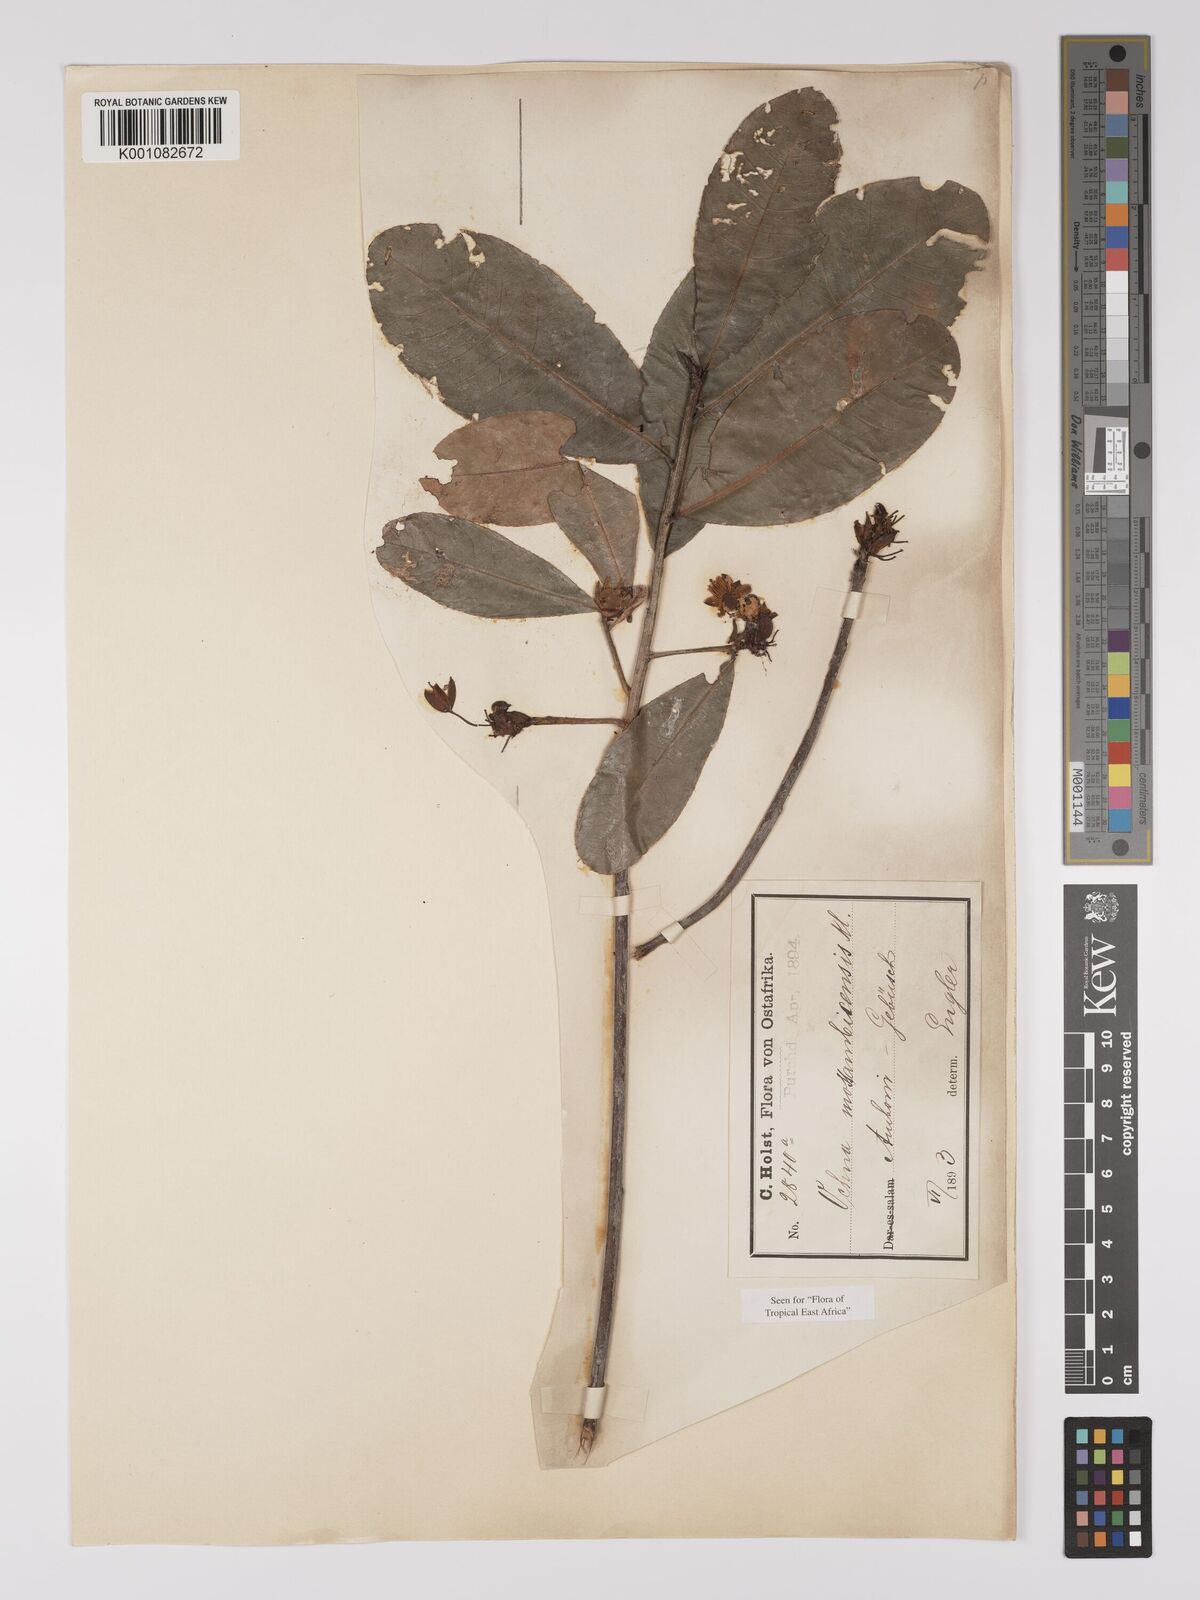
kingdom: Plantae
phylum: Tracheophyta
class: Magnoliopsida
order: Malpighiales
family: Ochnaceae
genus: Ochna
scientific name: Ochna atropurpurea
